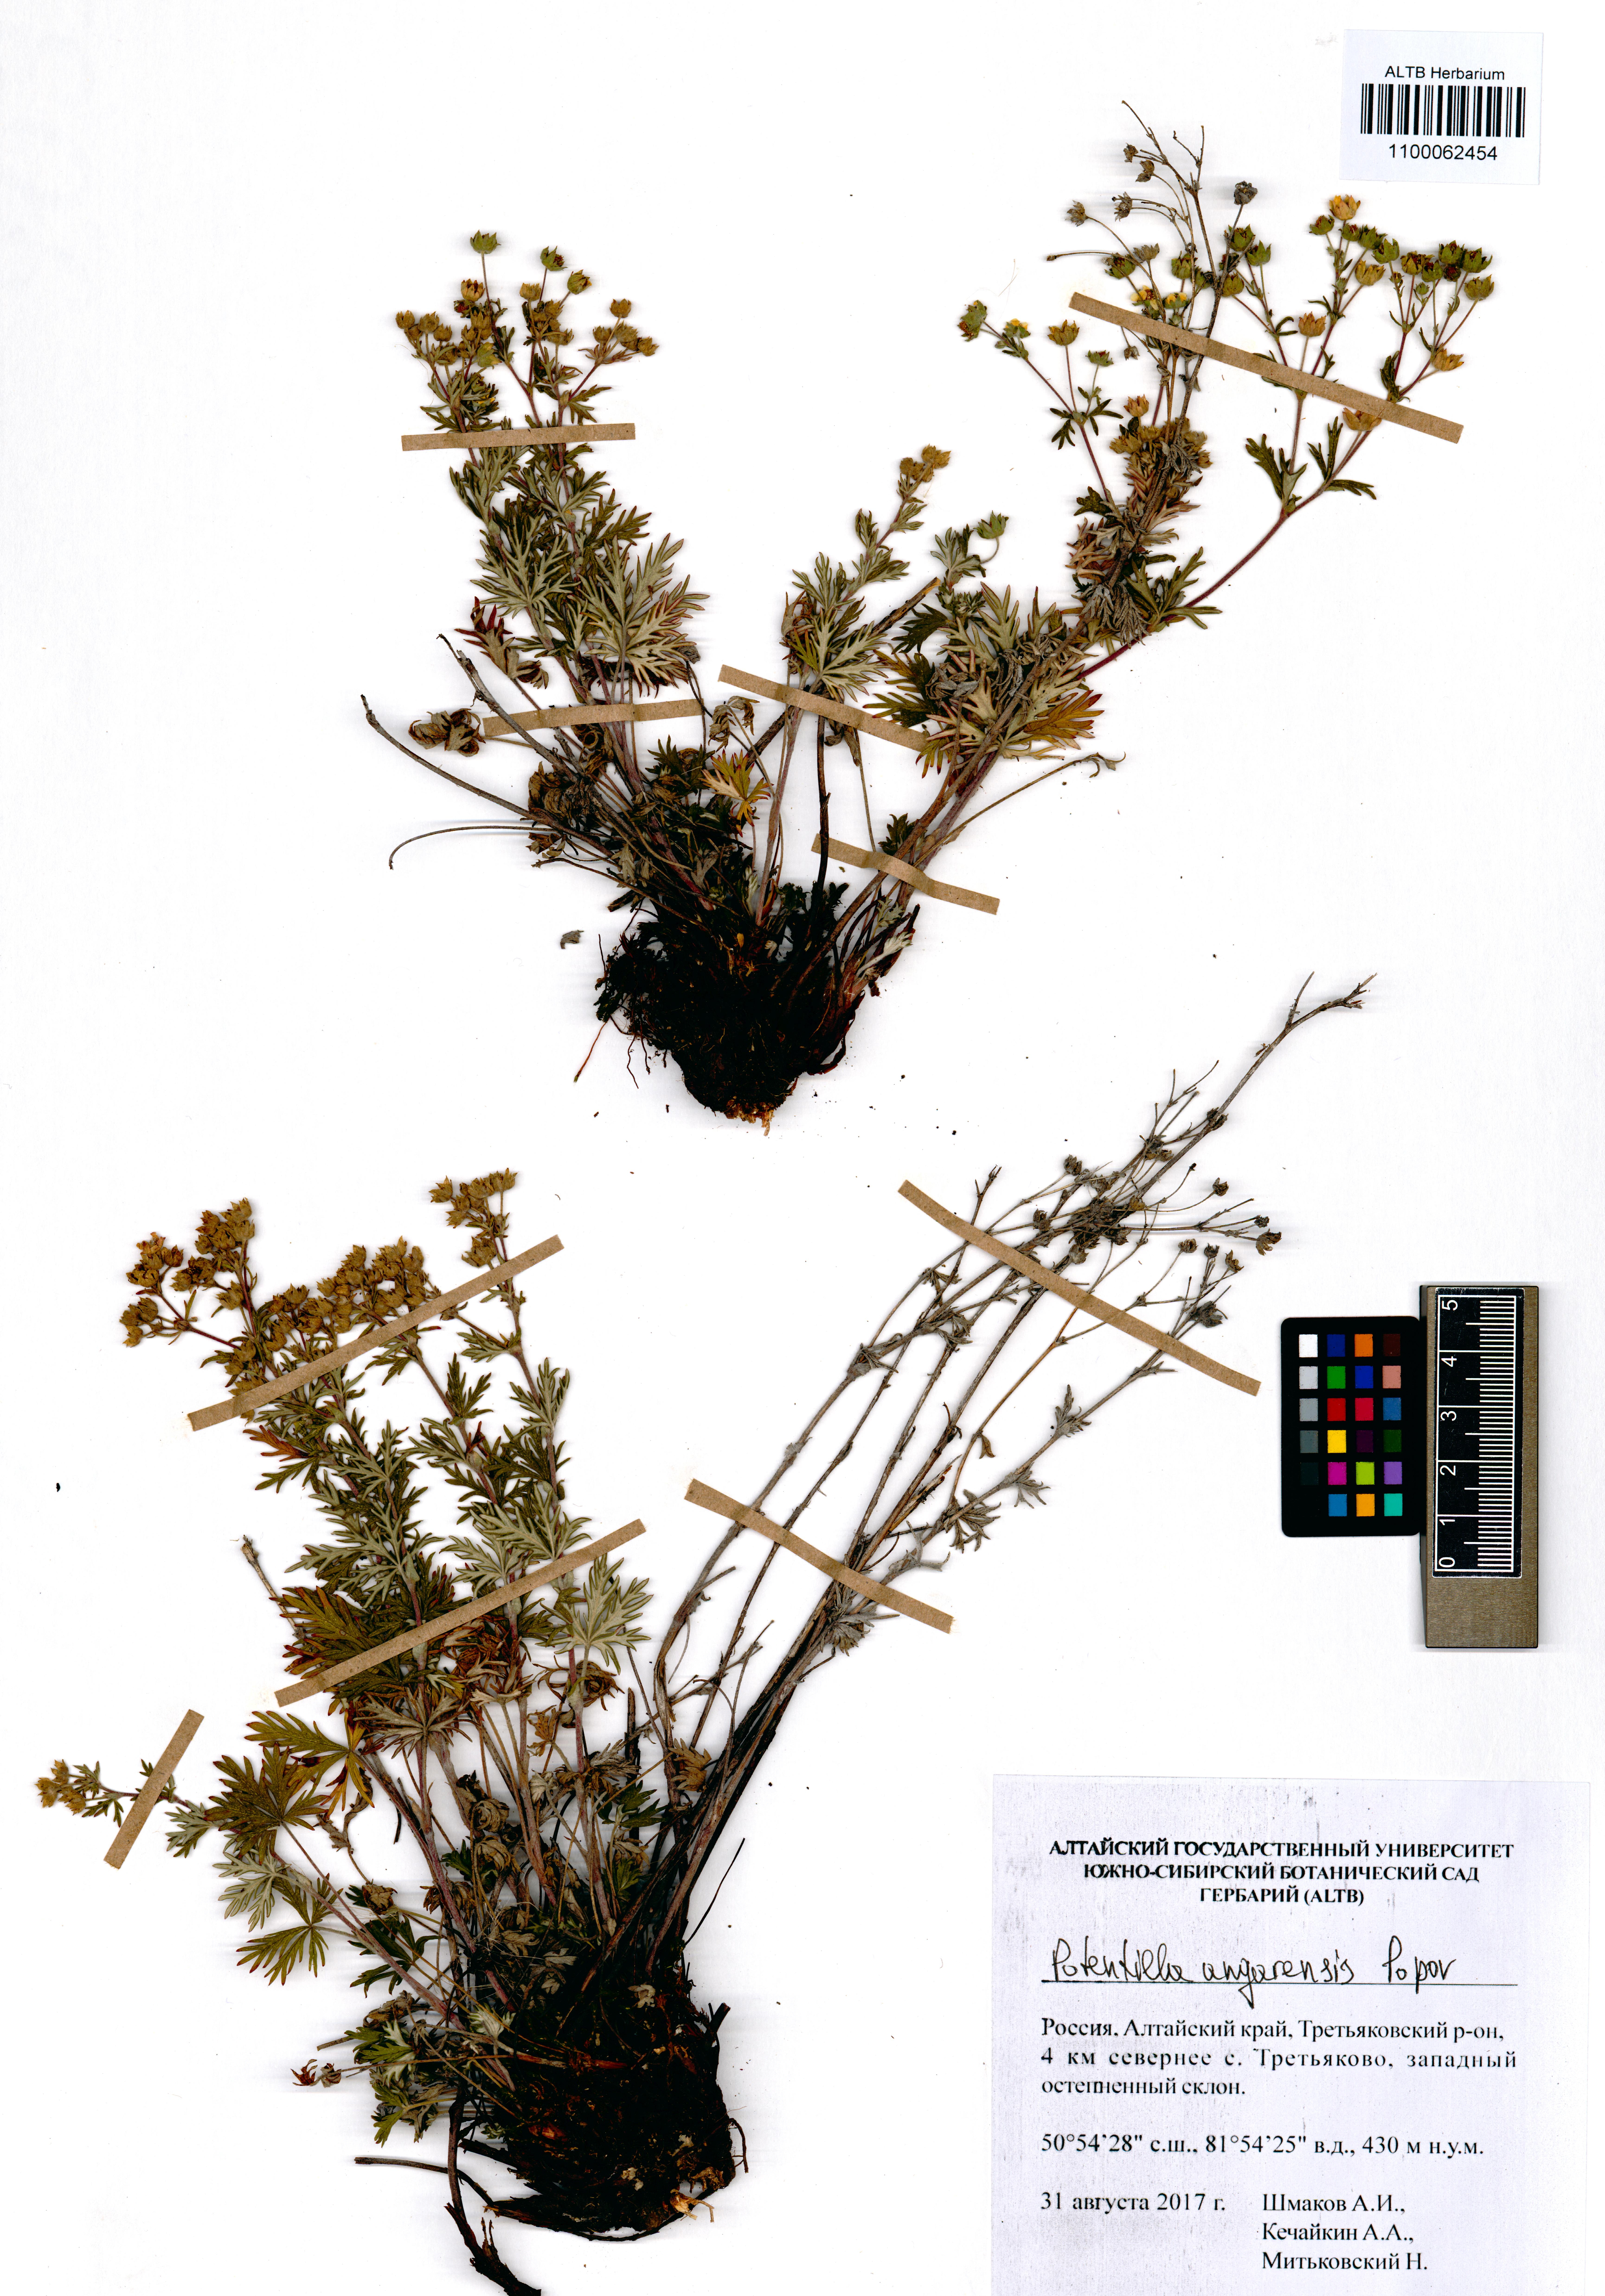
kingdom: Plantae
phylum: Tracheophyta
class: Magnoliopsida
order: Rosales
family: Rosaceae
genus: Potentilla
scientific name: Potentilla angarensis
